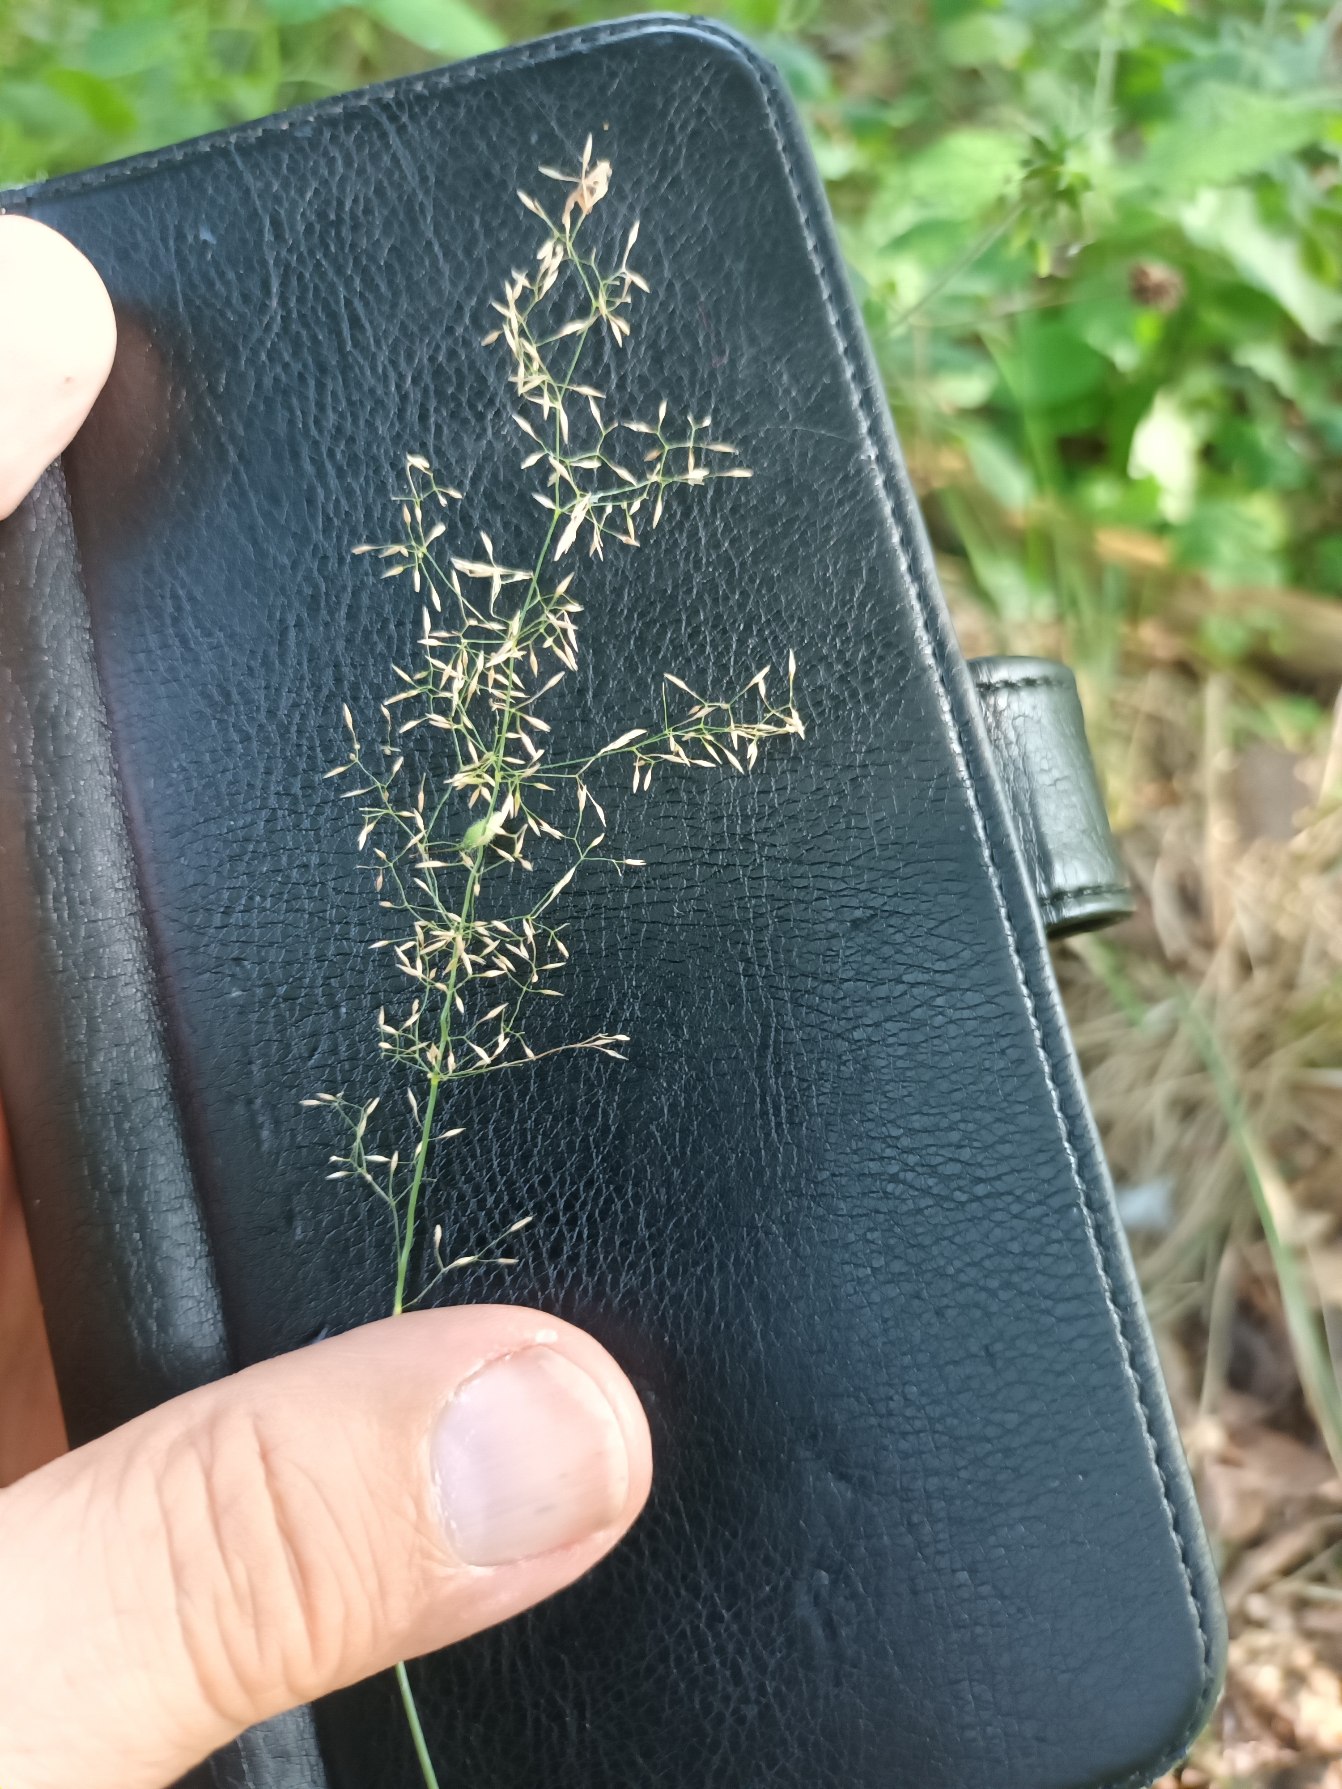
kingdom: Plantae
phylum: Tracheophyta
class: Liliopsida
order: Poales
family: Poaceae
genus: Agrostis
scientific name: Agrostis capillaris
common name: Almindelig hvene
